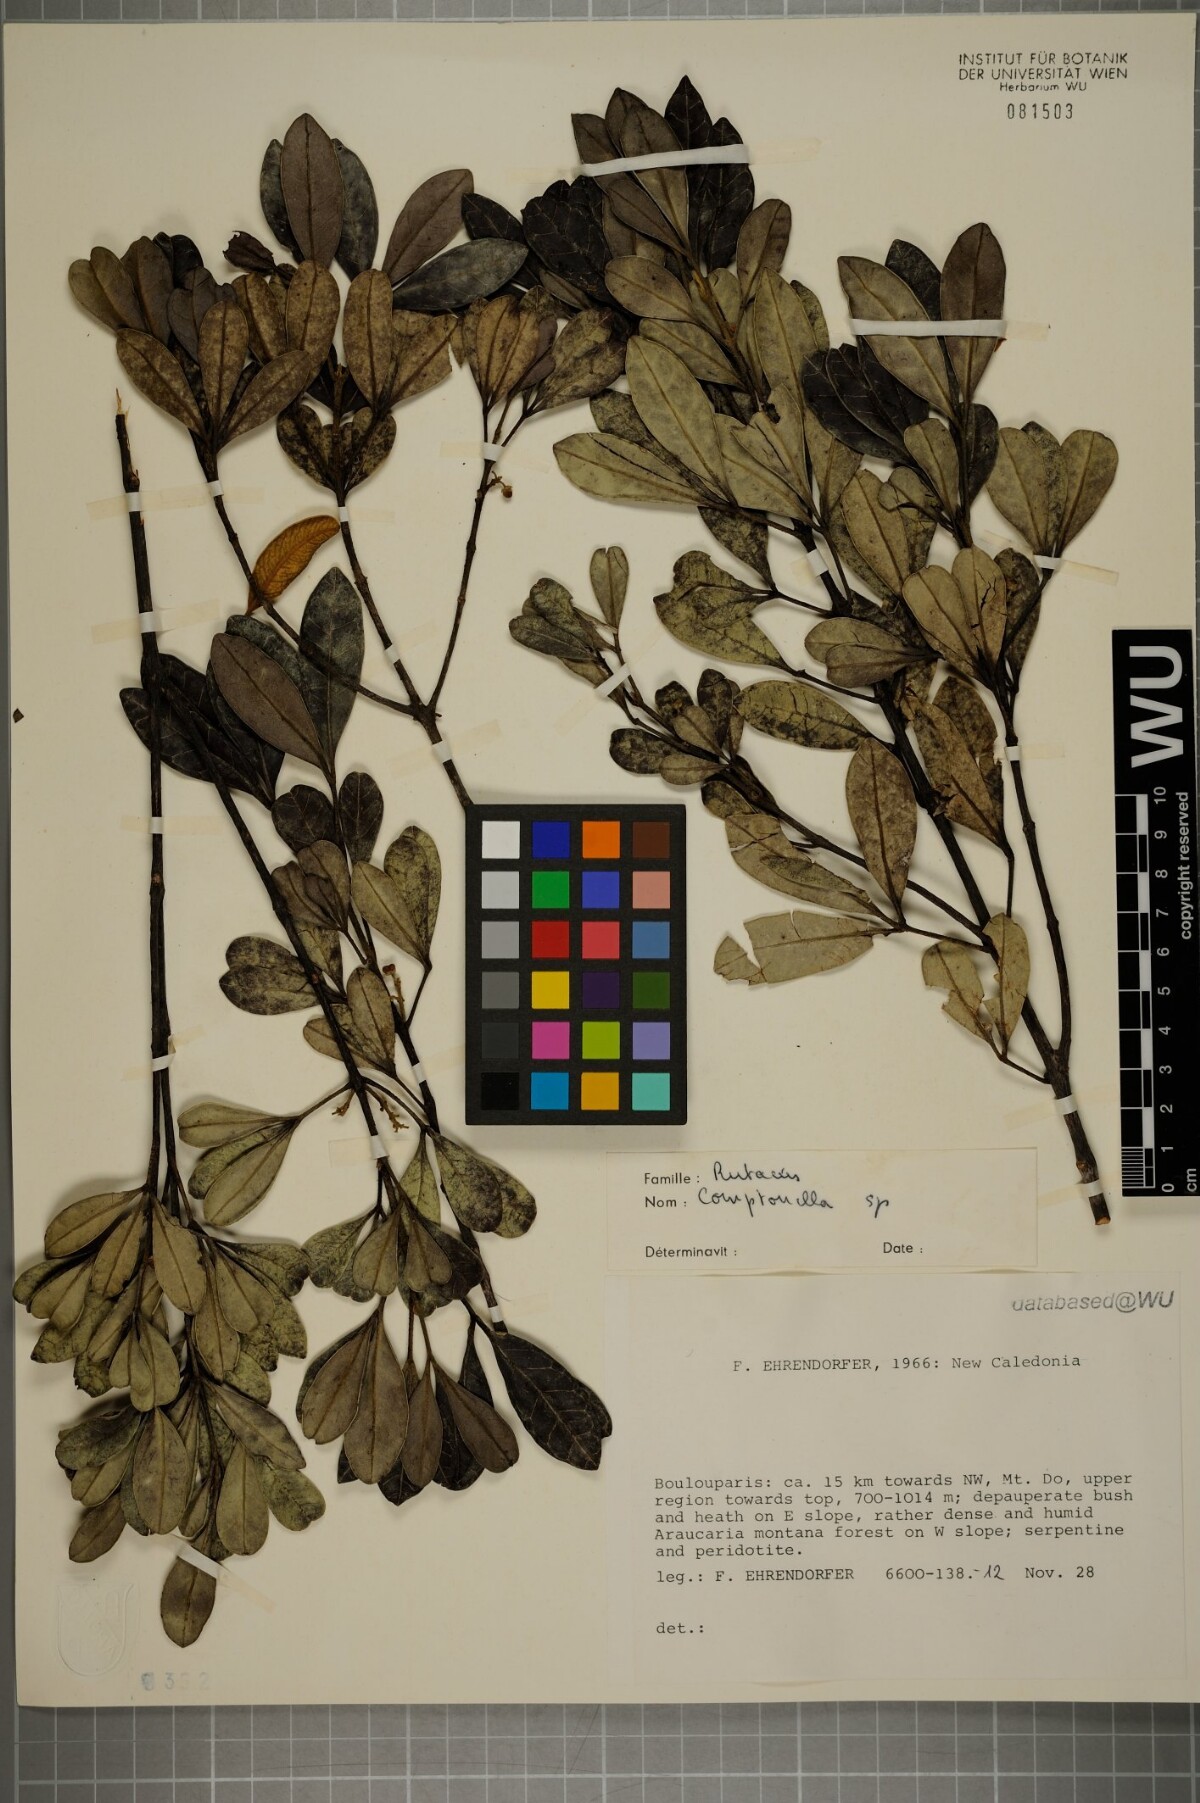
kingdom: Plantae
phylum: Tracheophyta
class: Magnoliopsida
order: Sapindales
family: Rutaceae
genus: Comptonella
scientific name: Comptonella
